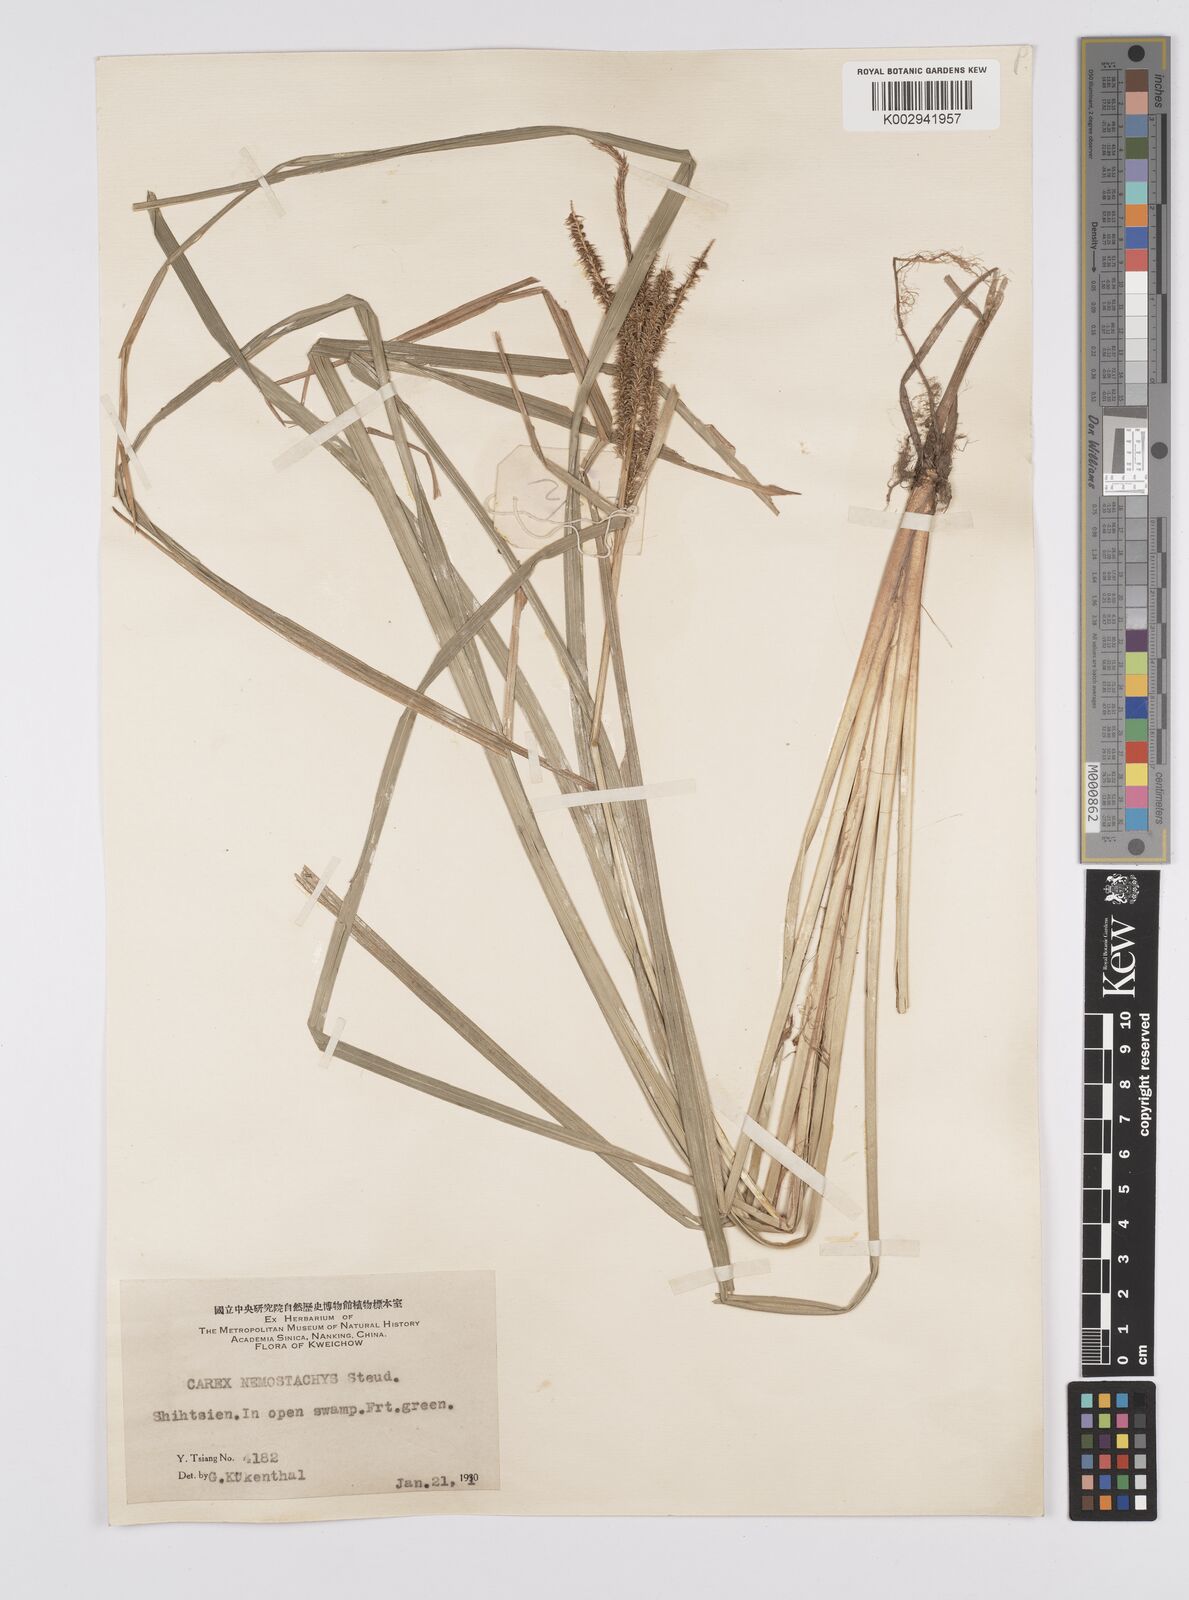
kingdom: Plantae
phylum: Tracheophyta
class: Liliopsida
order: Poales
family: Cyperaceae
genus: Carex
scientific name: Carex nemostachys
